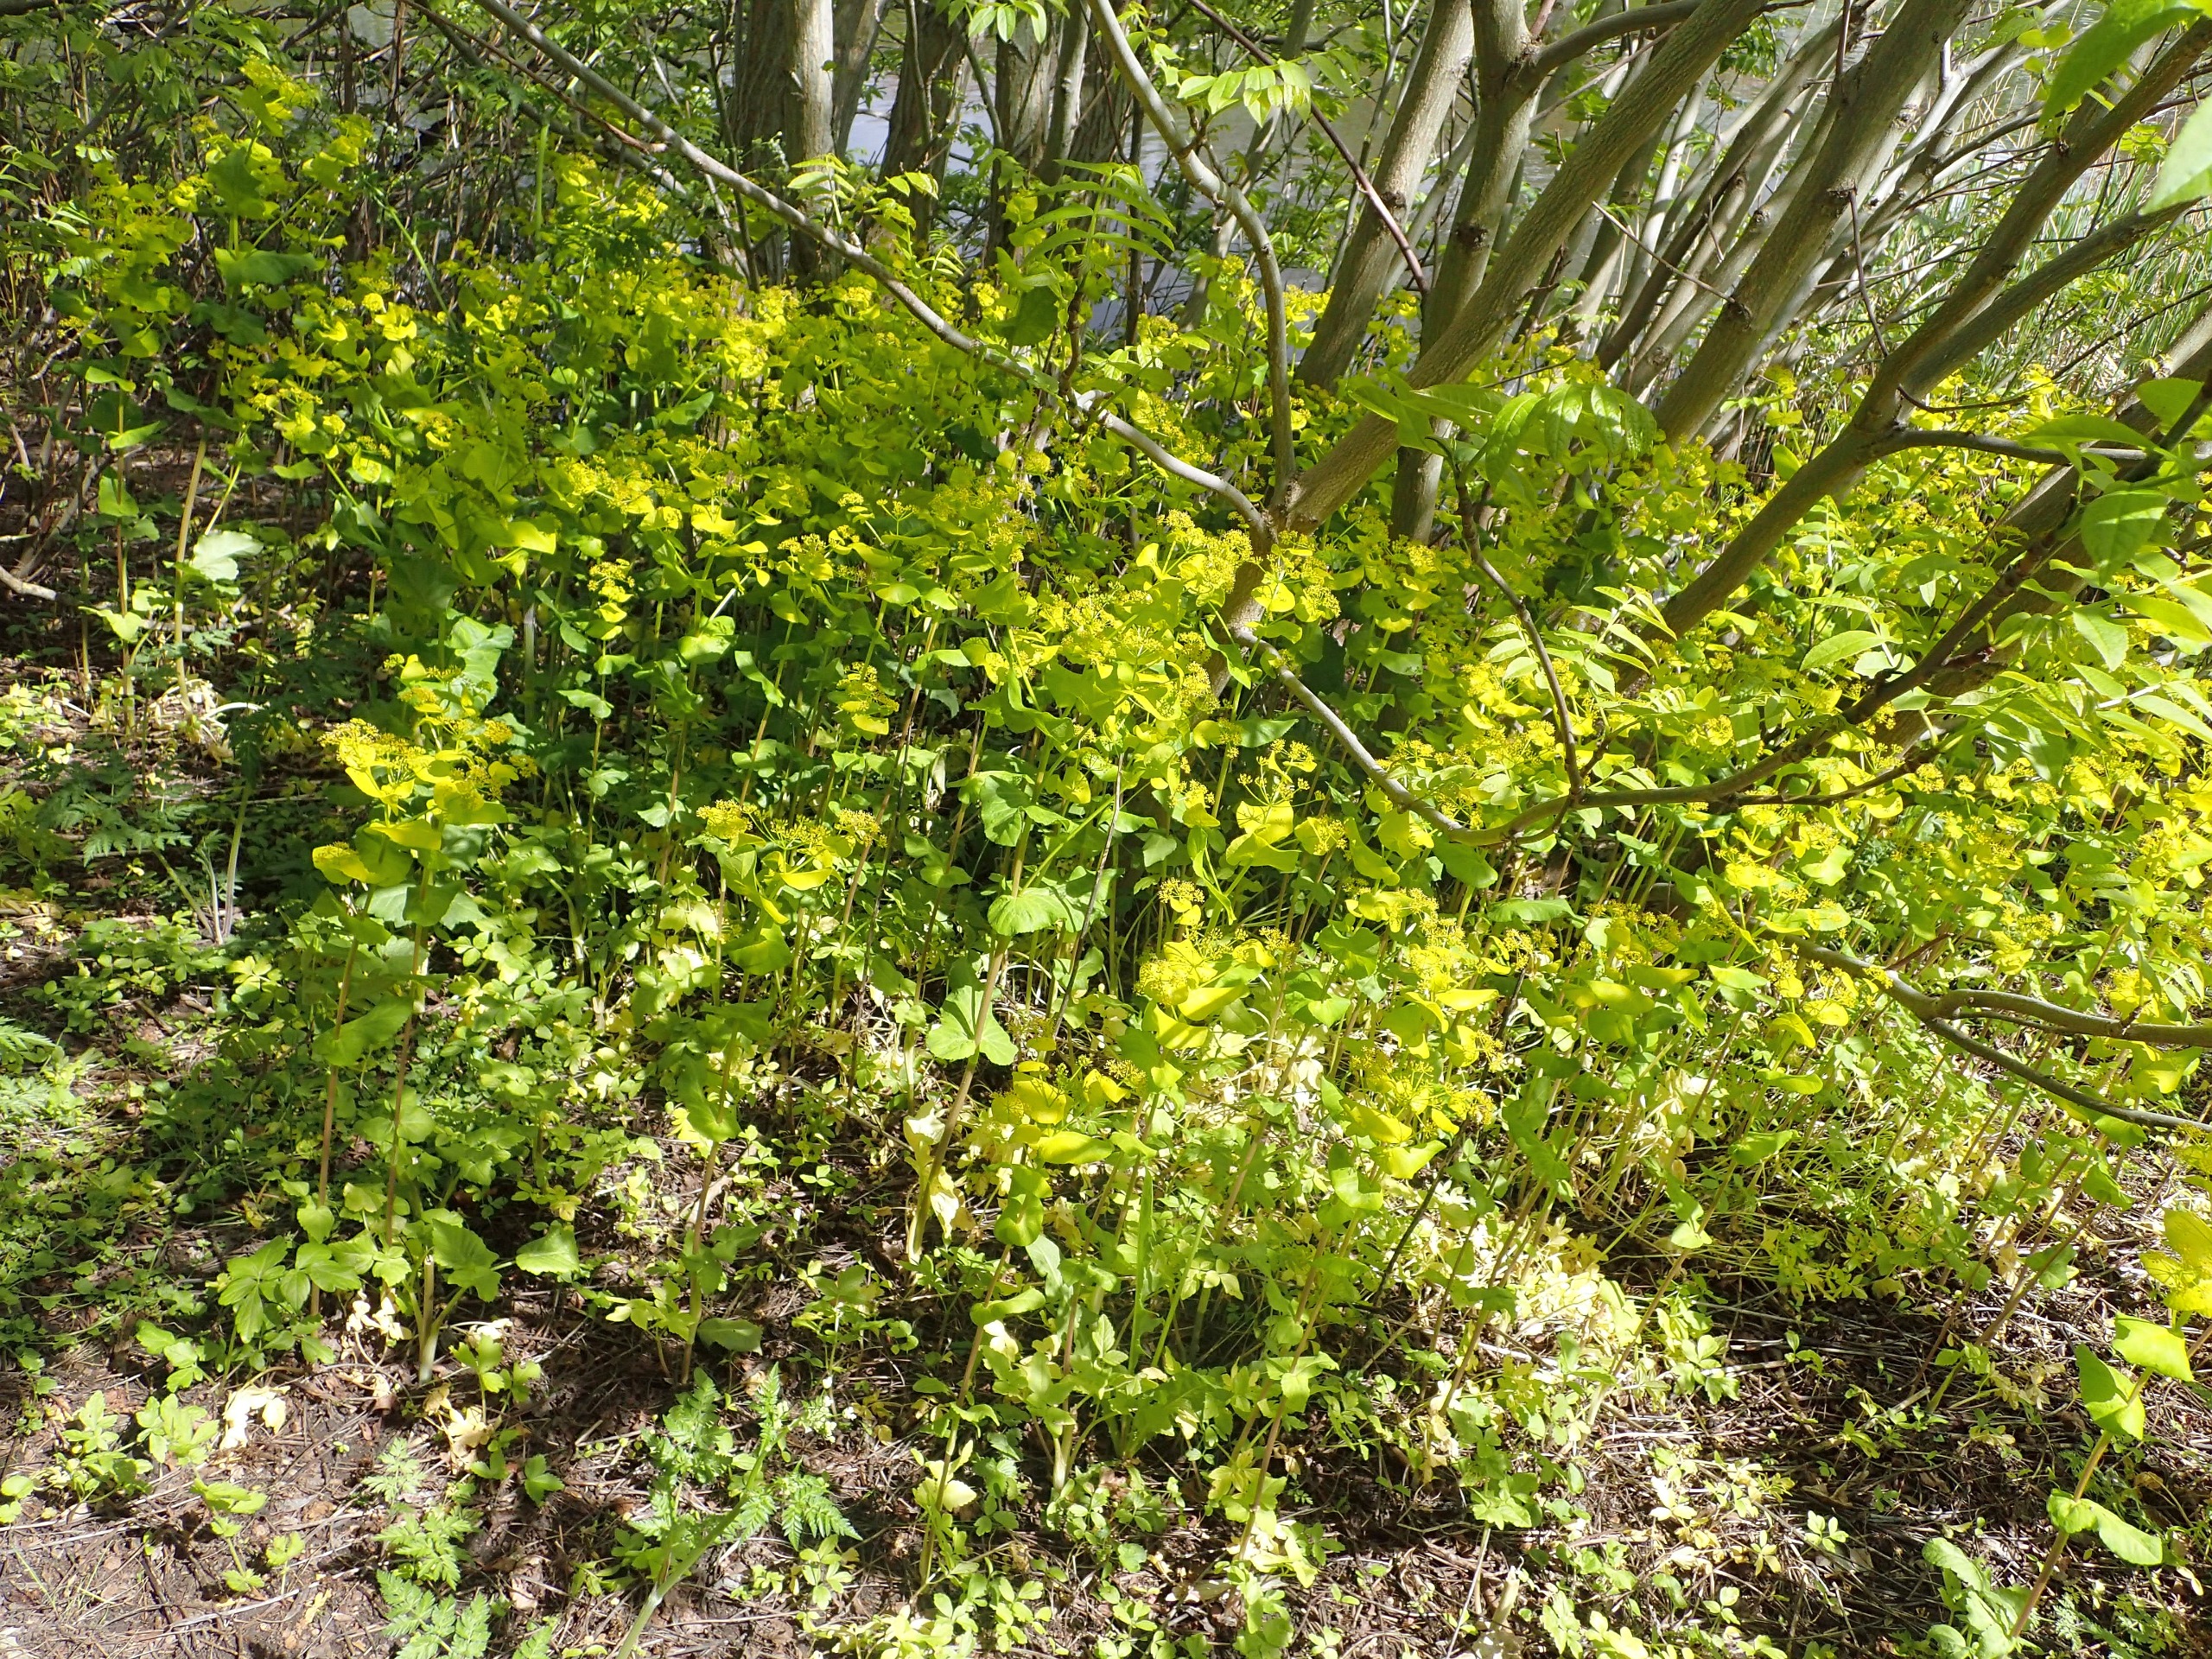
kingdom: Plantae
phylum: Tracheophyta
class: Magnoliopsida
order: Apiales
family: Apiaceae
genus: Smyrnium
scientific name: Smyrnium perfoliatum
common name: Lundgylden
